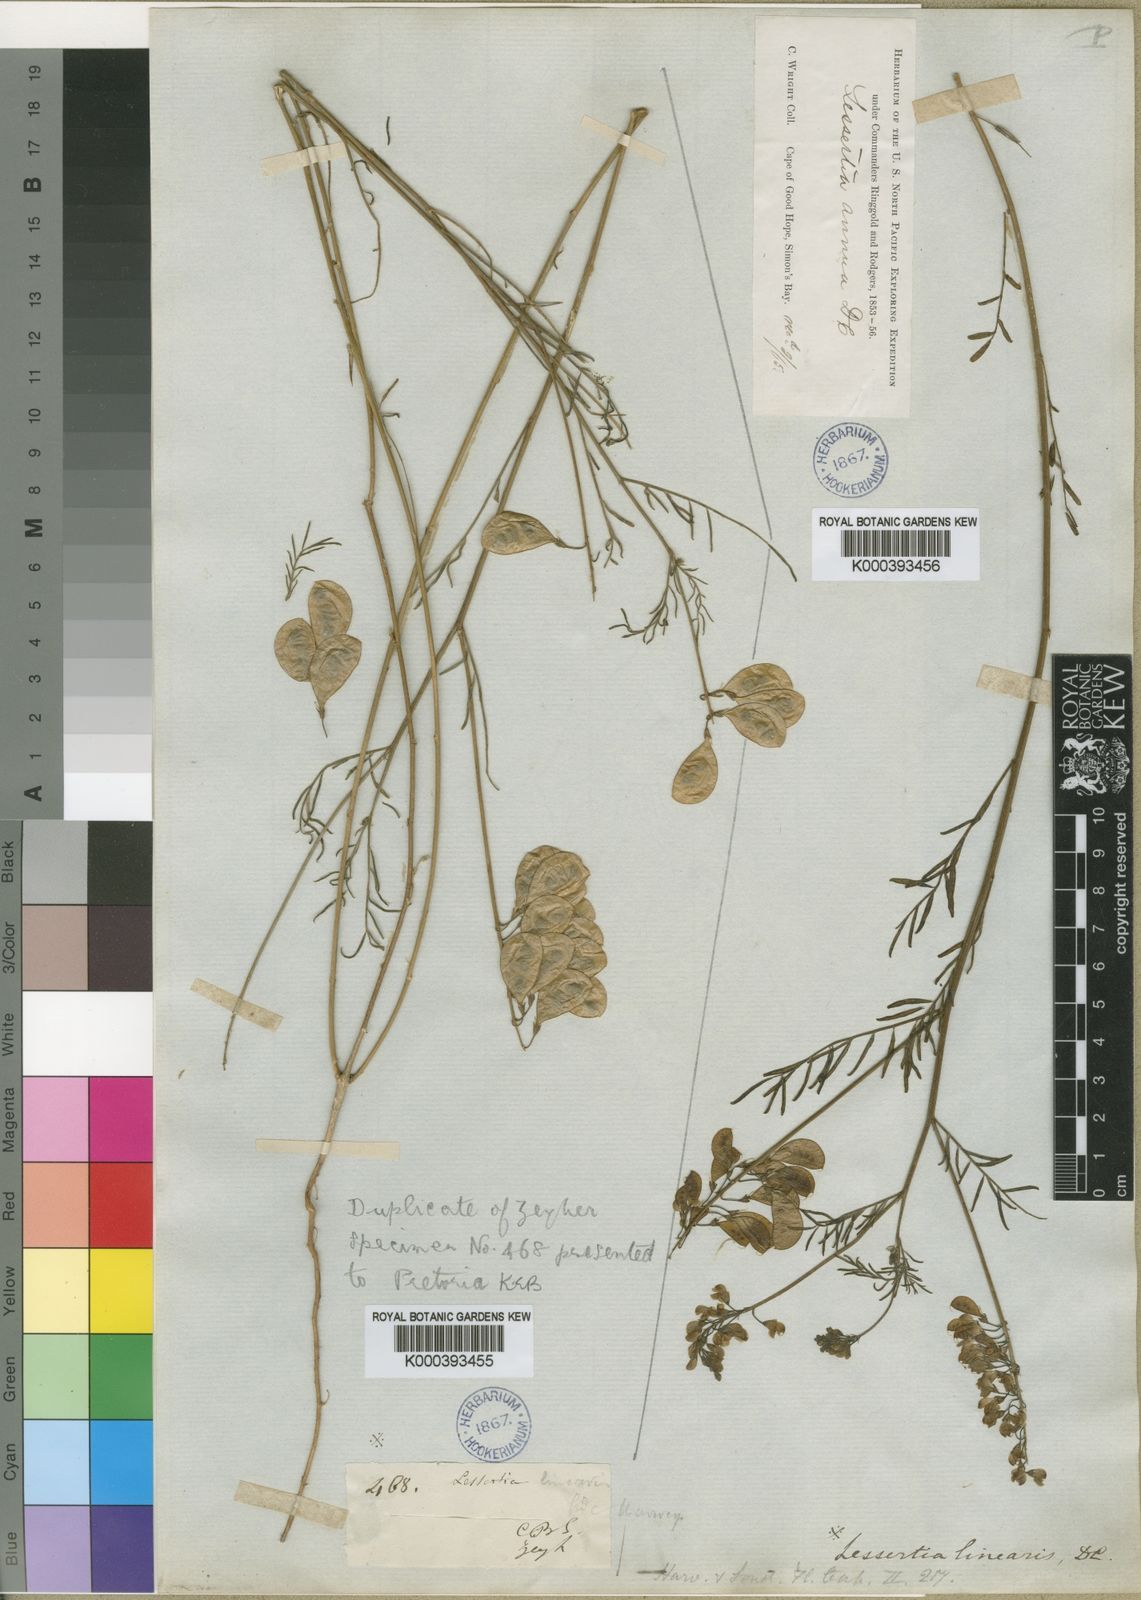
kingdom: Plantae
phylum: Tracheophyta
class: Magnoliopsida
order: Fabales
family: Fabaceae
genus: Lessertia
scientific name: Lessertia herbacea
